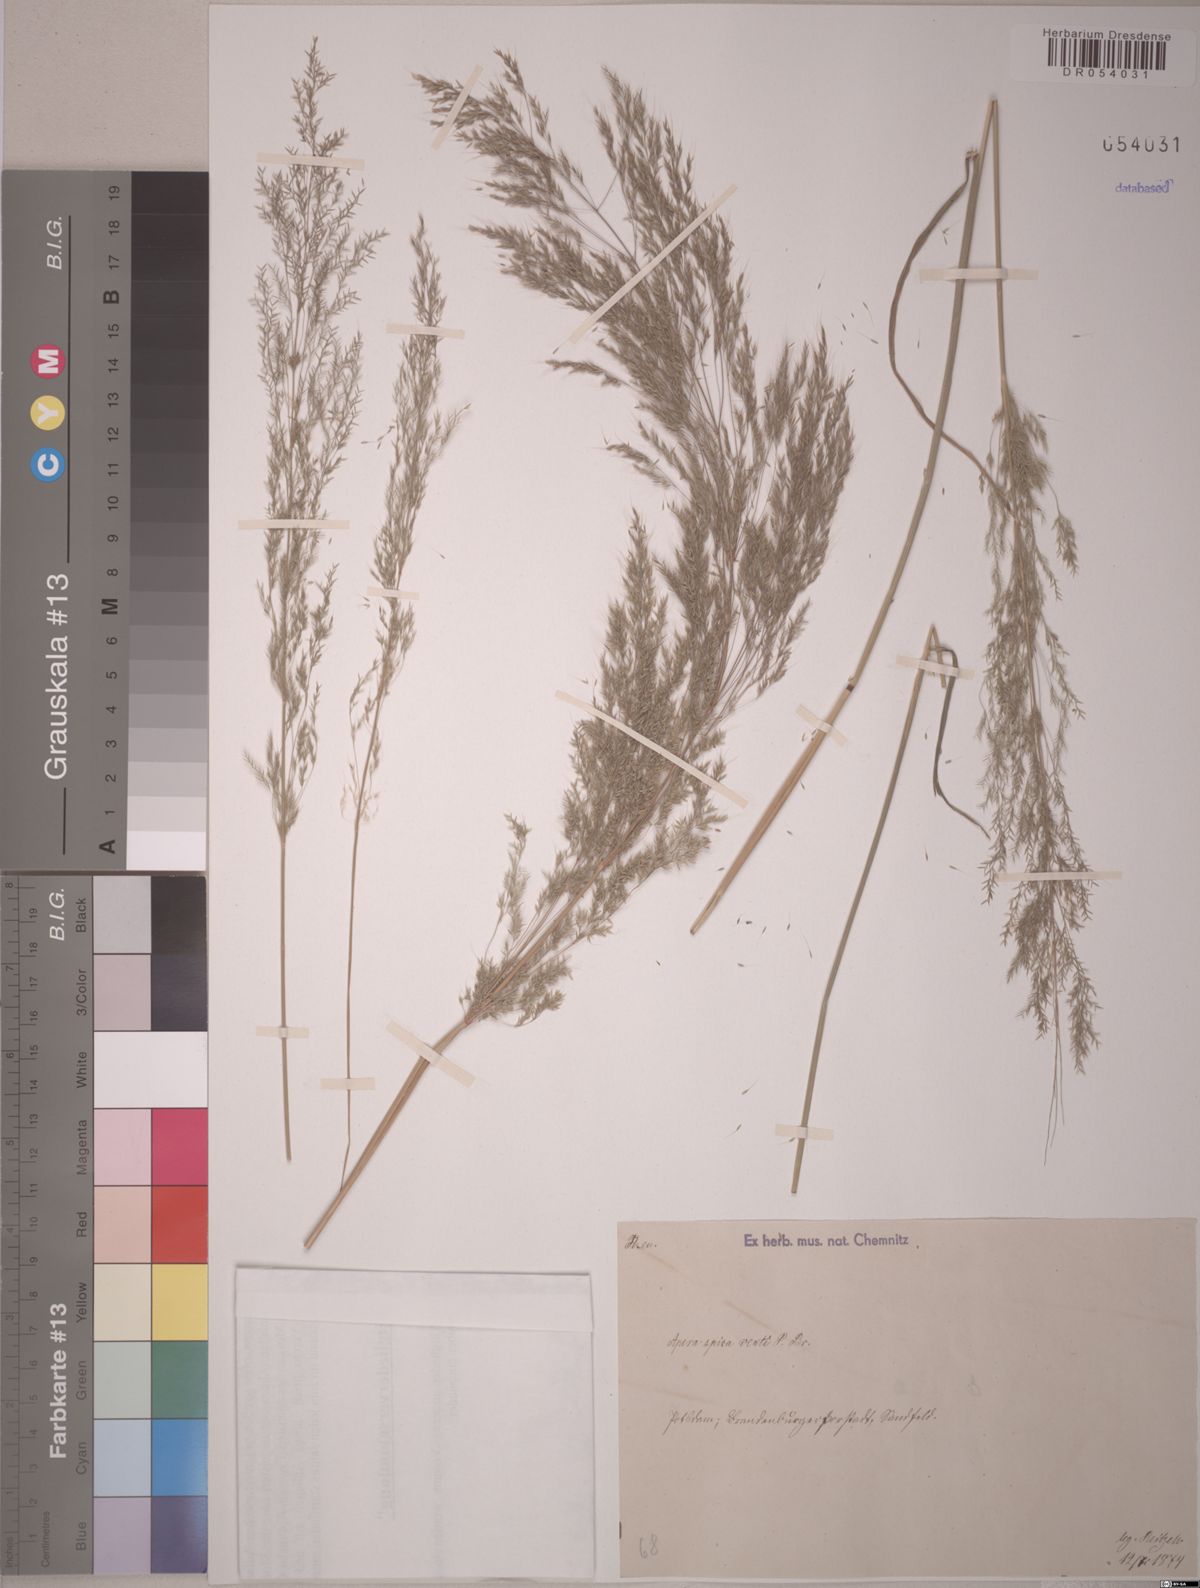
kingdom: Plantae
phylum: Tracheophyta
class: Liliopsida
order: Poales
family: Poaceae
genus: Apera
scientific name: Apera spica-venti
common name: Loose silky-bent
